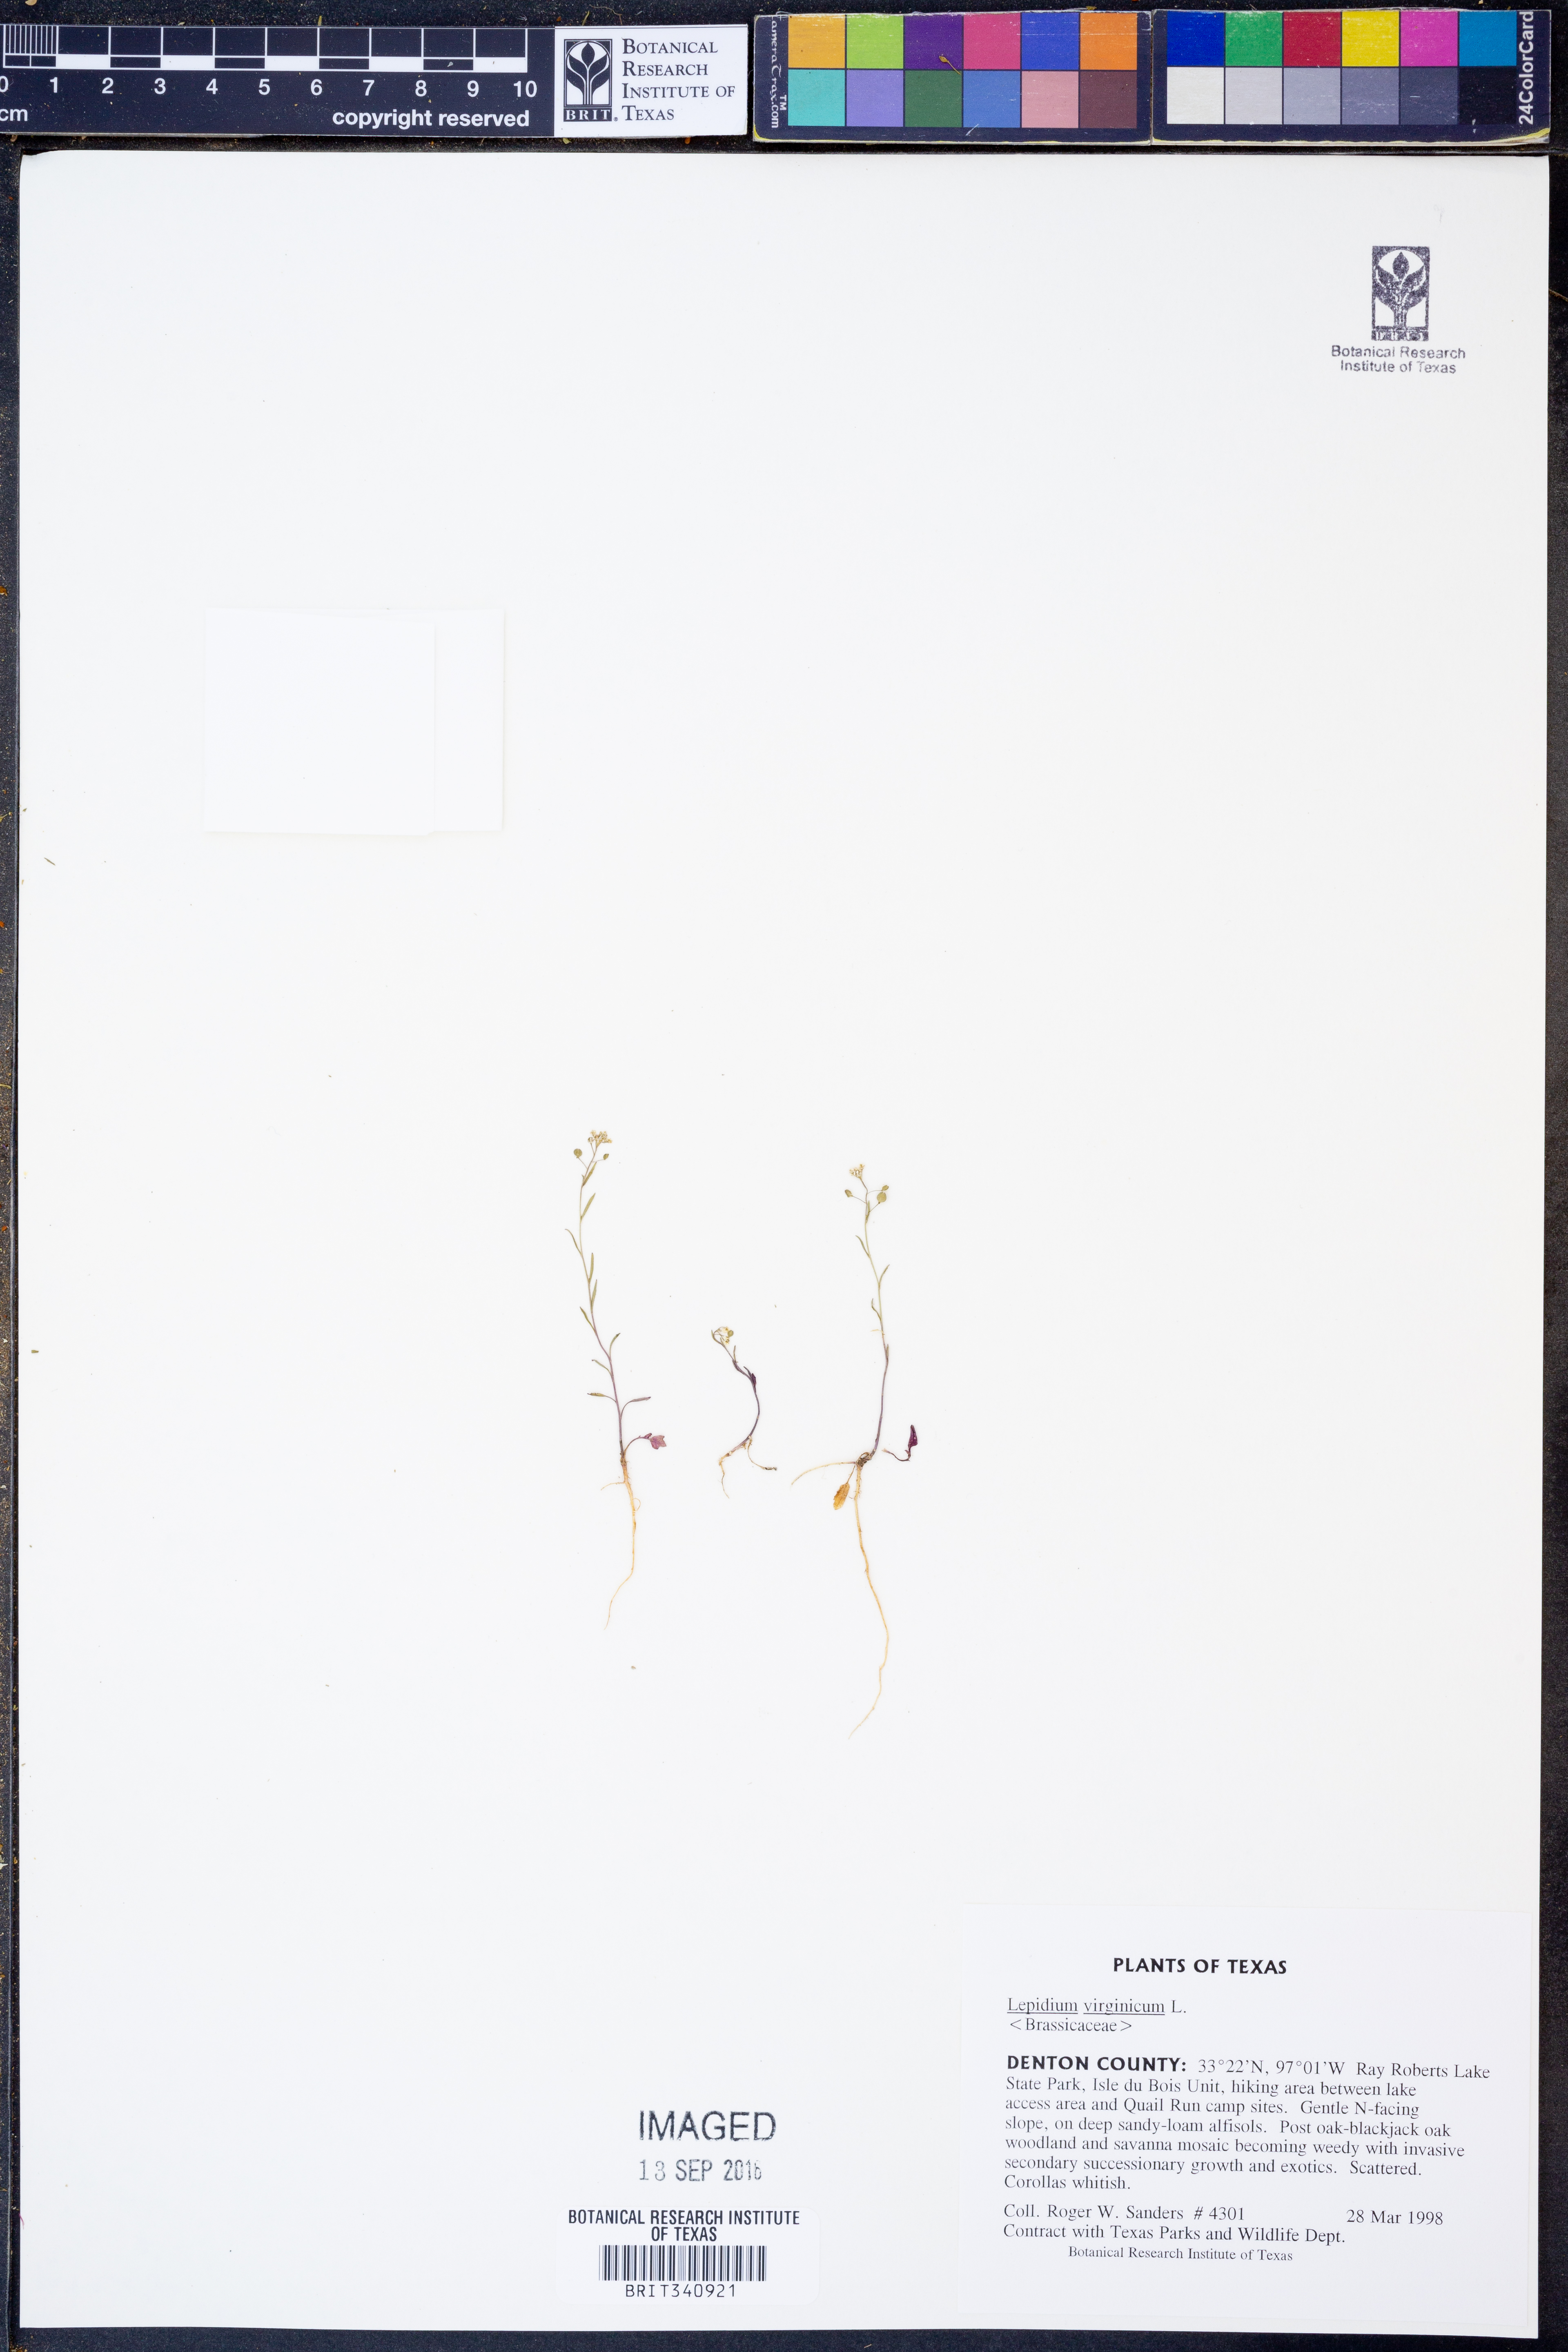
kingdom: Plantae
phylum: Tracheophyta
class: Magnoliopsida
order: Brassicales
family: Brassicaceae
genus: Lepidium
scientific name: Lepidium virginicum
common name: Least pepperwort
